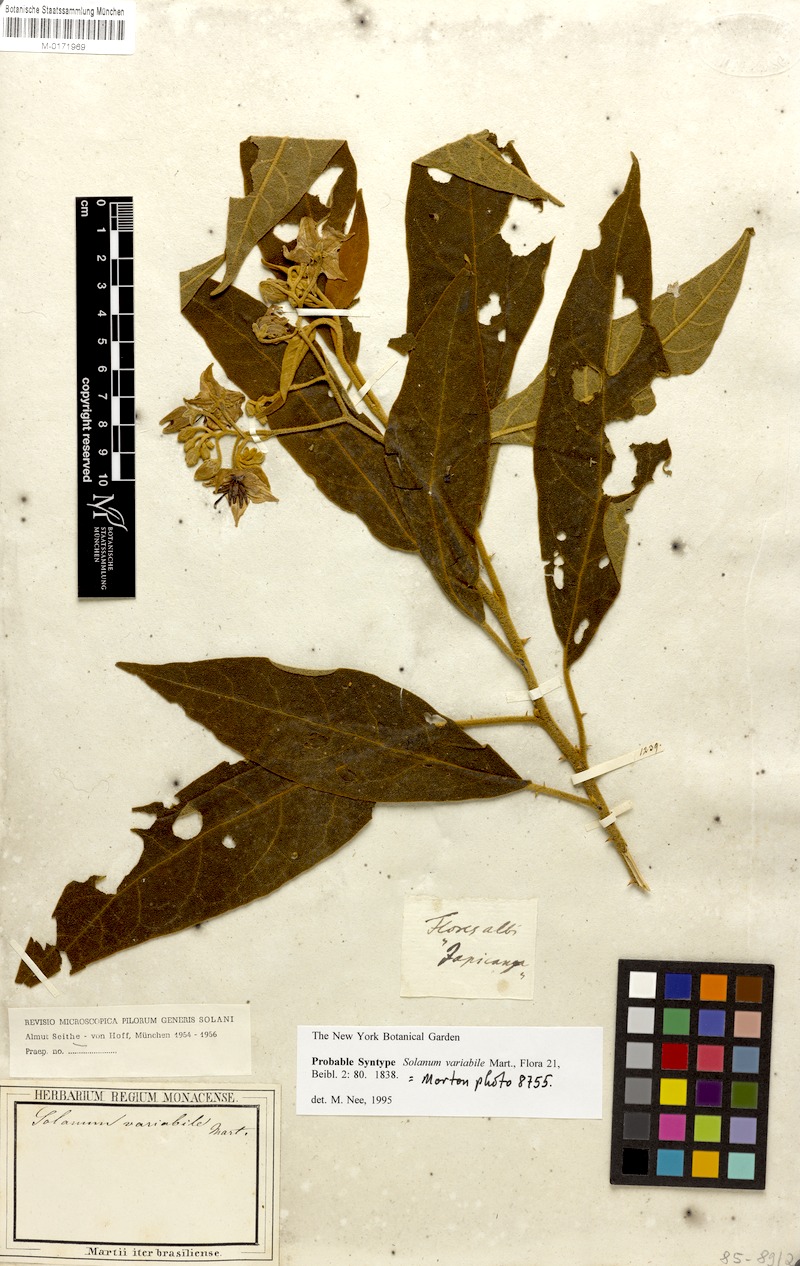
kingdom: Plantae
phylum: Tracheophyta
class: Magnoliopsida
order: Solanales
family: Solanaceae
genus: Solanum
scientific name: Solanum variabile
